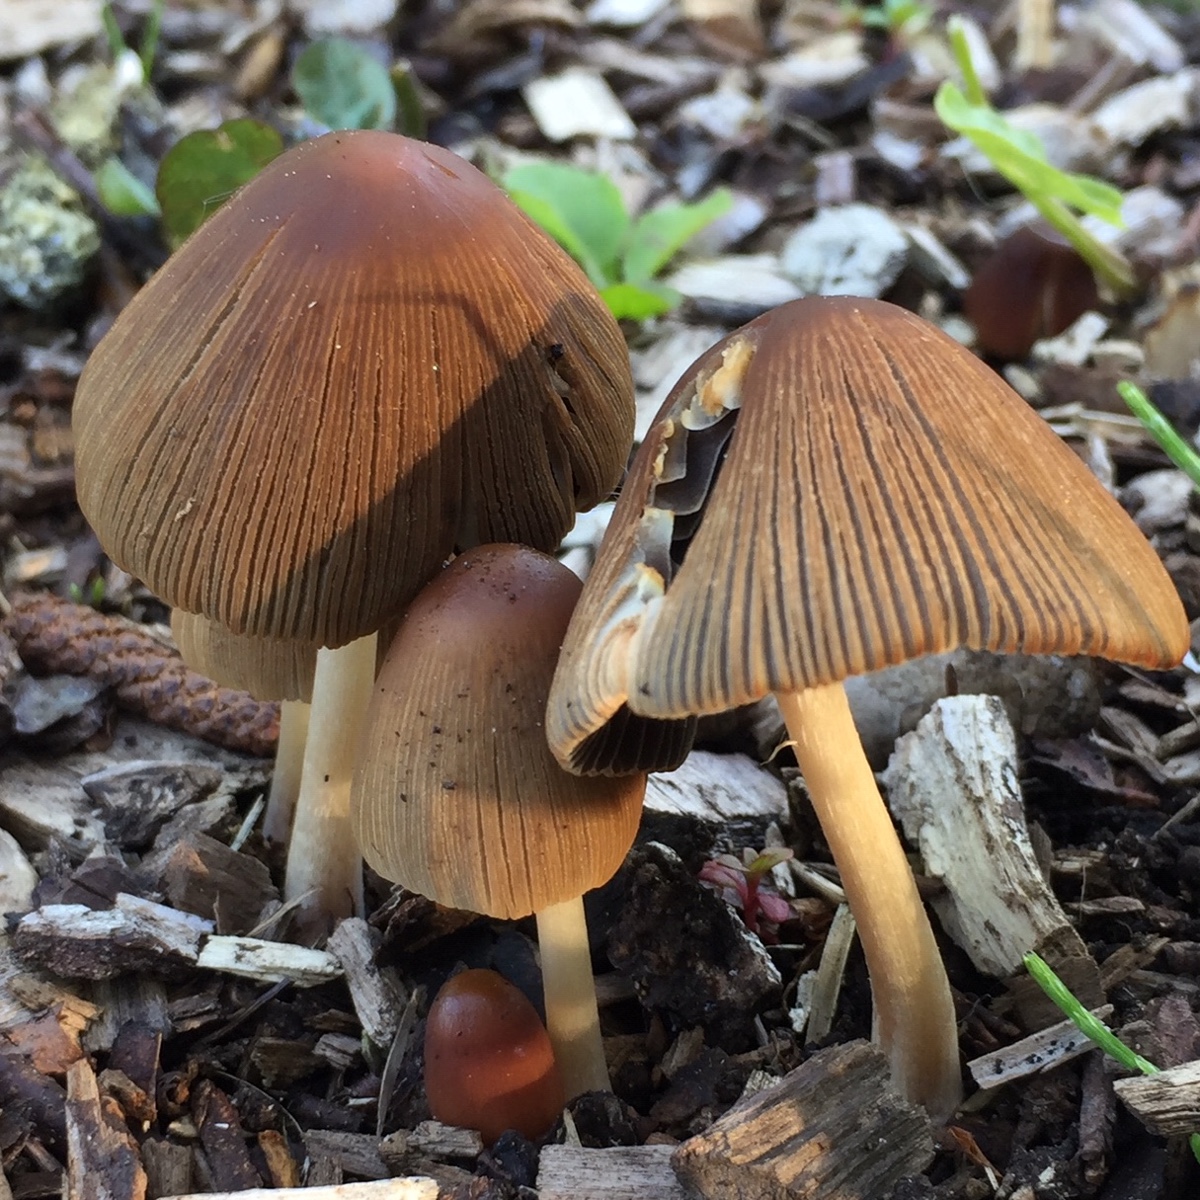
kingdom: Fungi
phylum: Basidiomycota
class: Agaricomycetes
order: Agaricales
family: Psathyrellaceae
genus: Parasola
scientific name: Parasola auricoma
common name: hansens hjulhat
